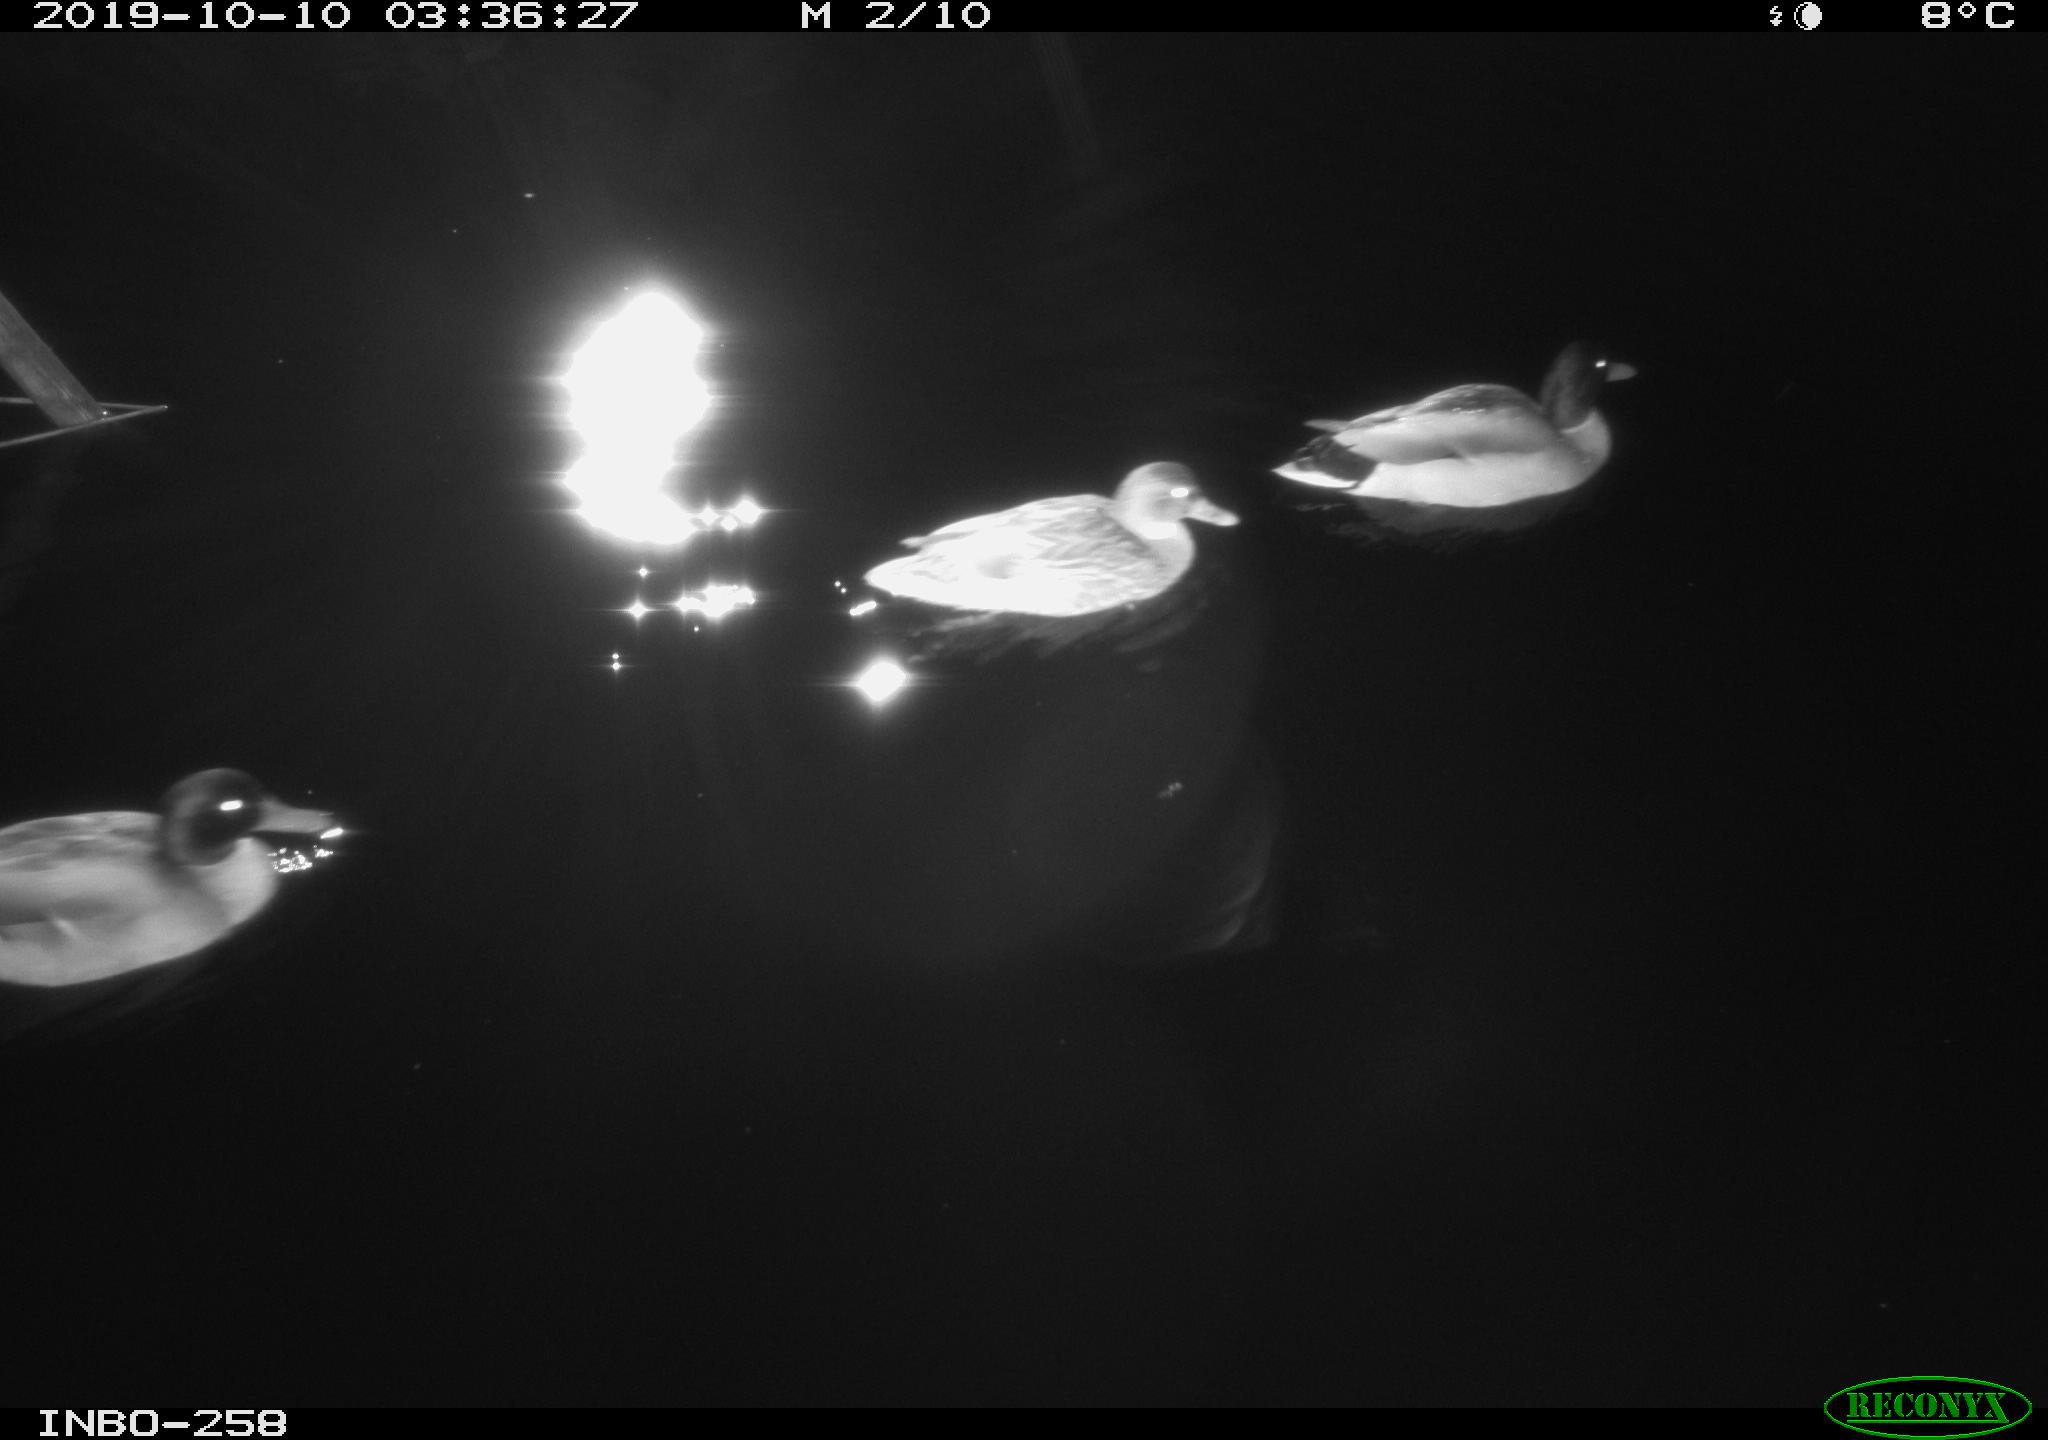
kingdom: Animalia
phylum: Chordata
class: Aves
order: Anseriformes
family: Anatidae
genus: Anas
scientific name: Anas platyrhynchos
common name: Mallard
